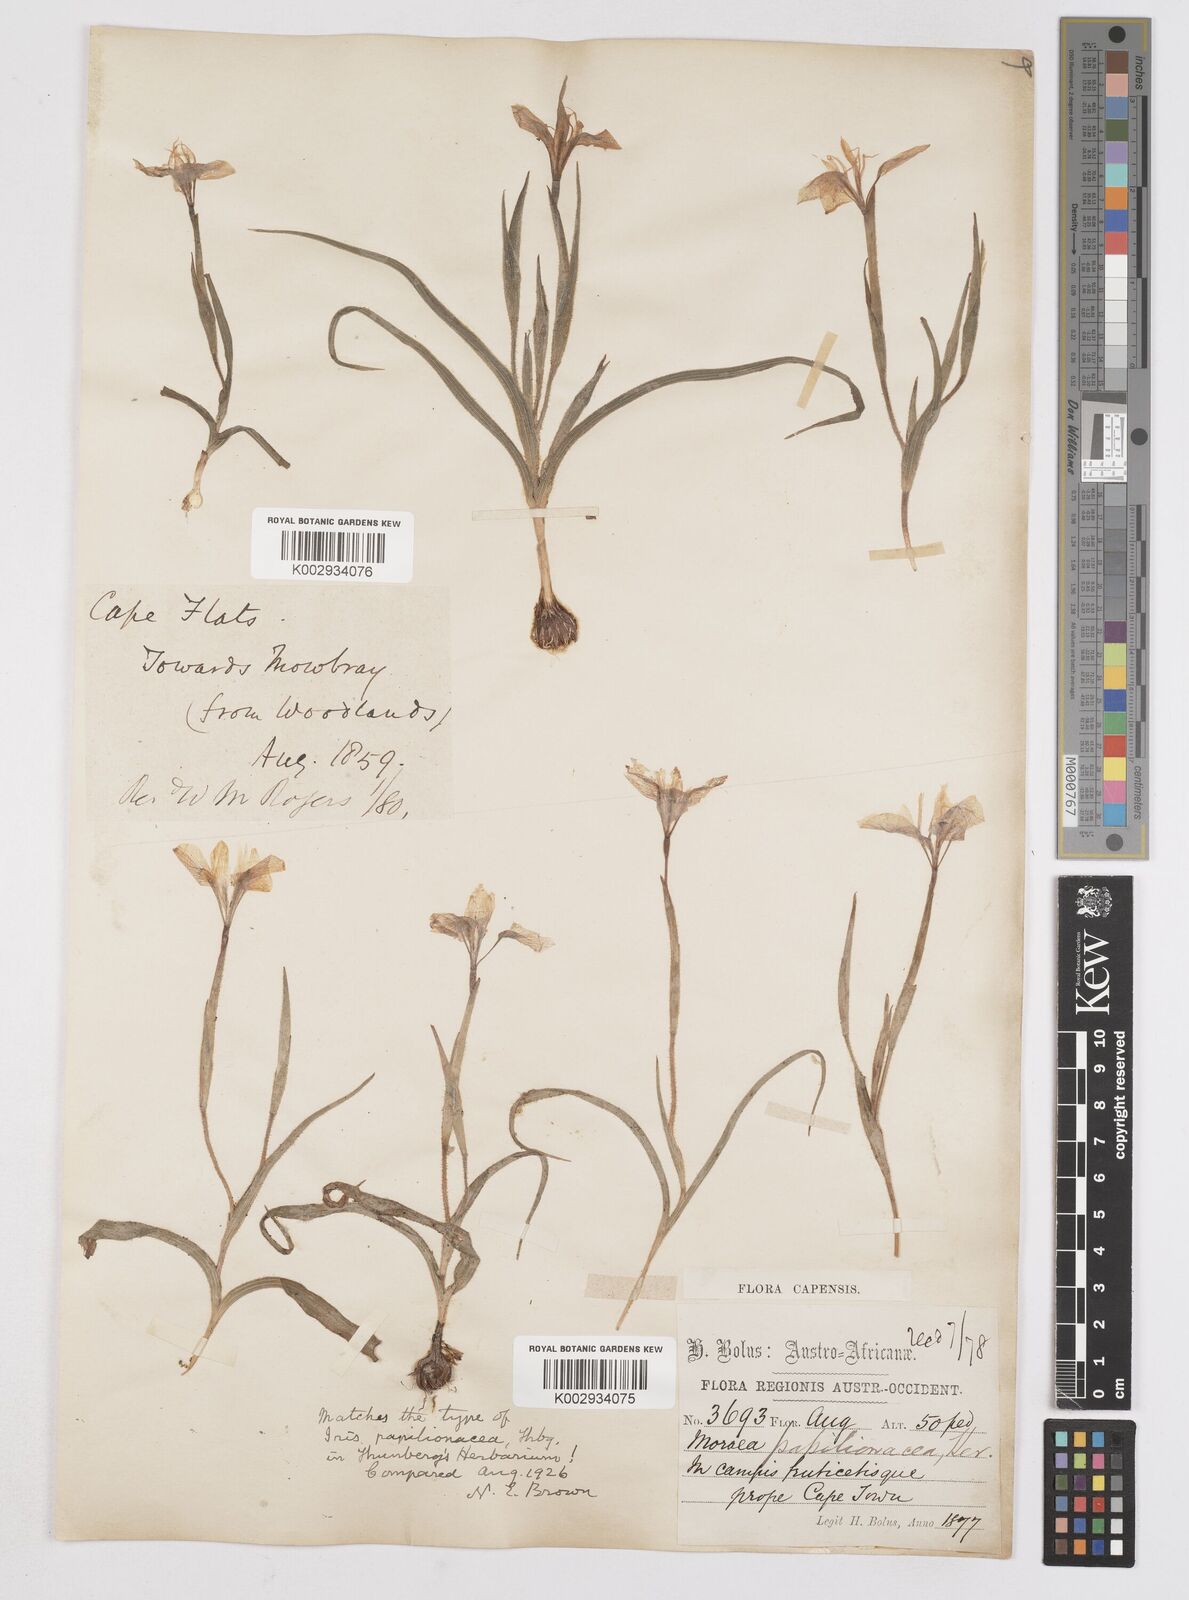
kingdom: Plantae
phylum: Tracheophyta
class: Liliopsida
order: Asparagales
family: Iridaceae
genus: Moraea
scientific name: Moraea papilionacea
